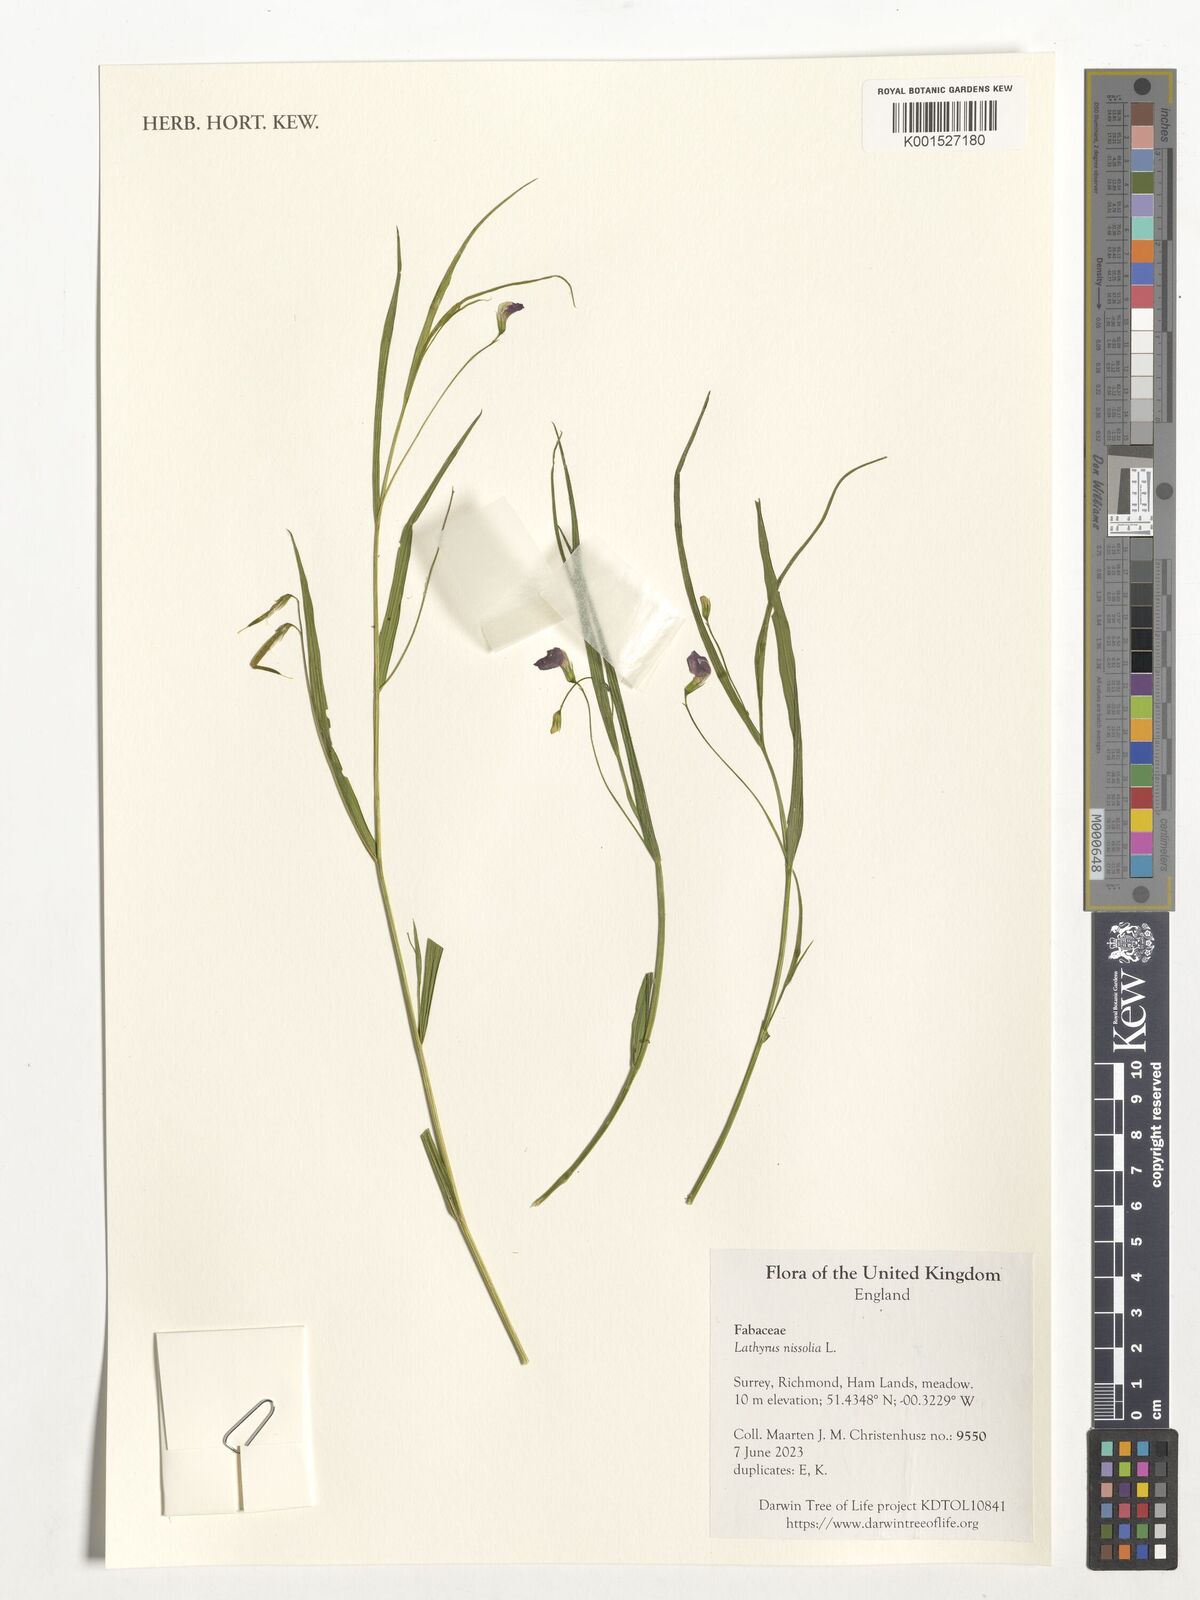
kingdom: Plantae
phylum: Tracheophyta
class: Magnoliopsida
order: Fabales
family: Fabaceae
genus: Lathyrus
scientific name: Lathyrus nissolia
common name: Grass vetchling
